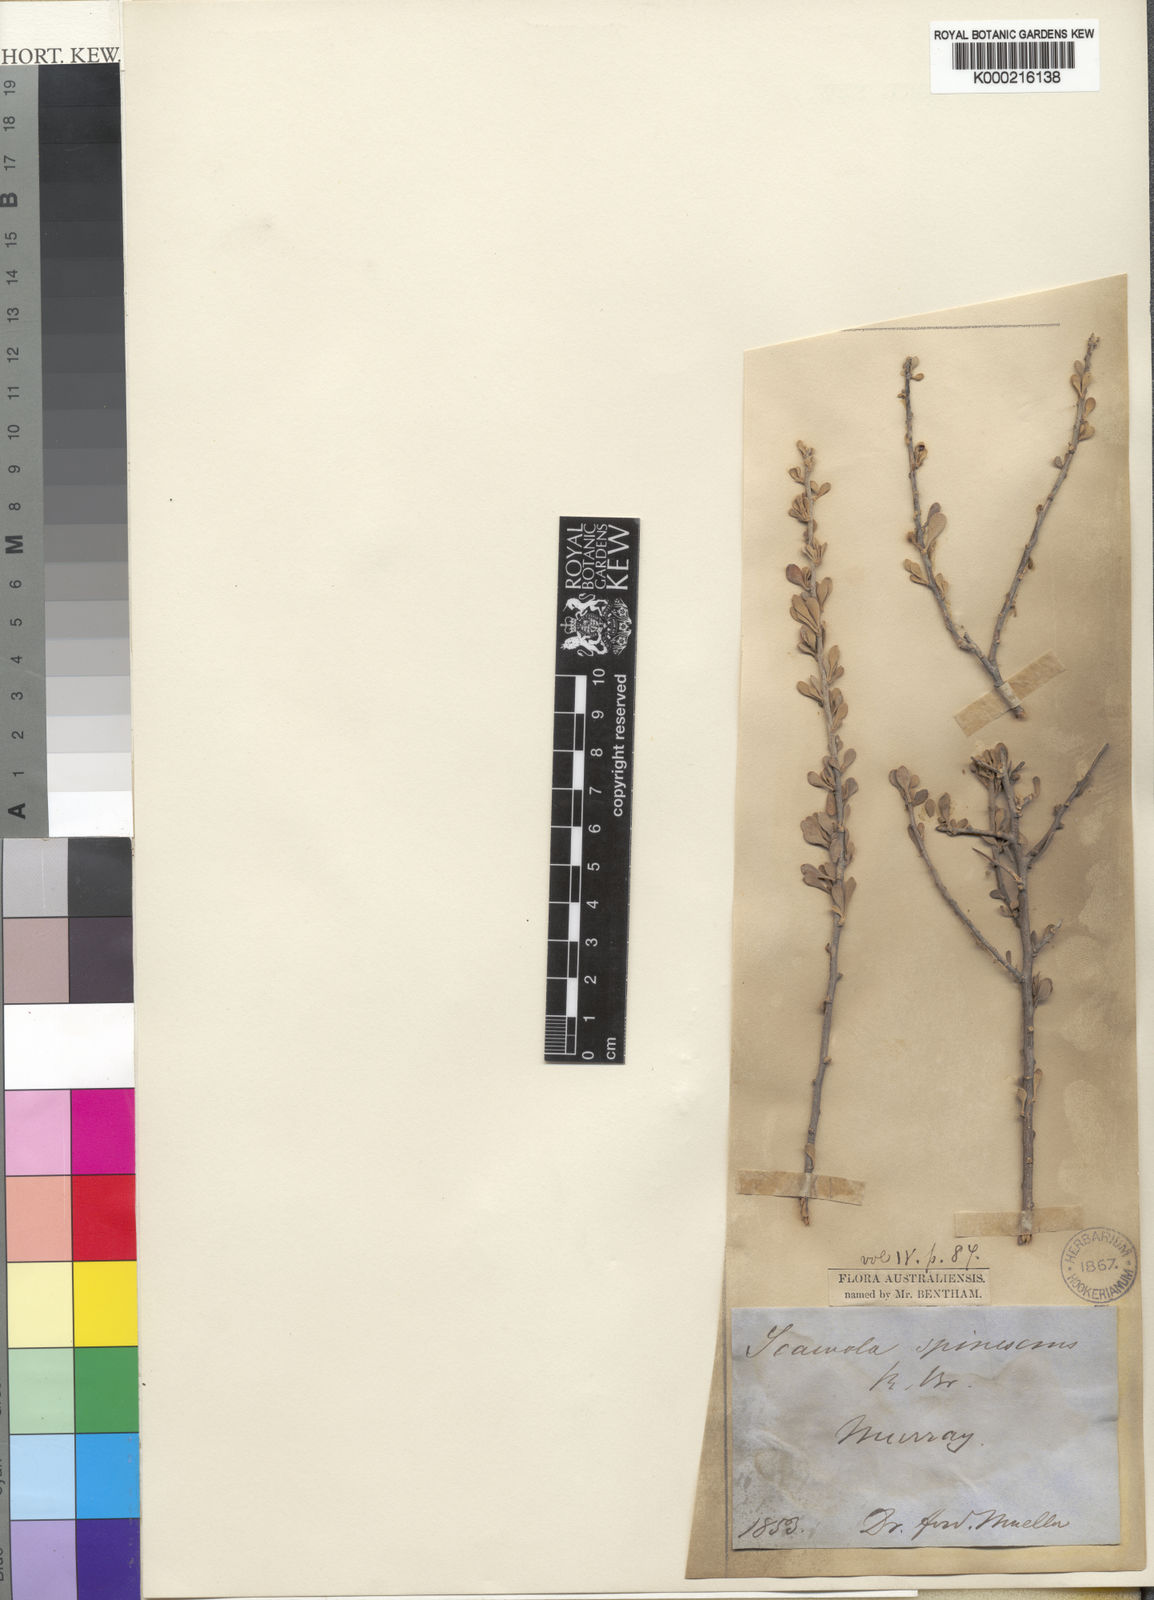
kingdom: Plantae
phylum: Tracheophyta
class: Magnoliopsida
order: Asterales
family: Goodeniaceae
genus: Scaevola
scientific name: Scaevola spinescens
